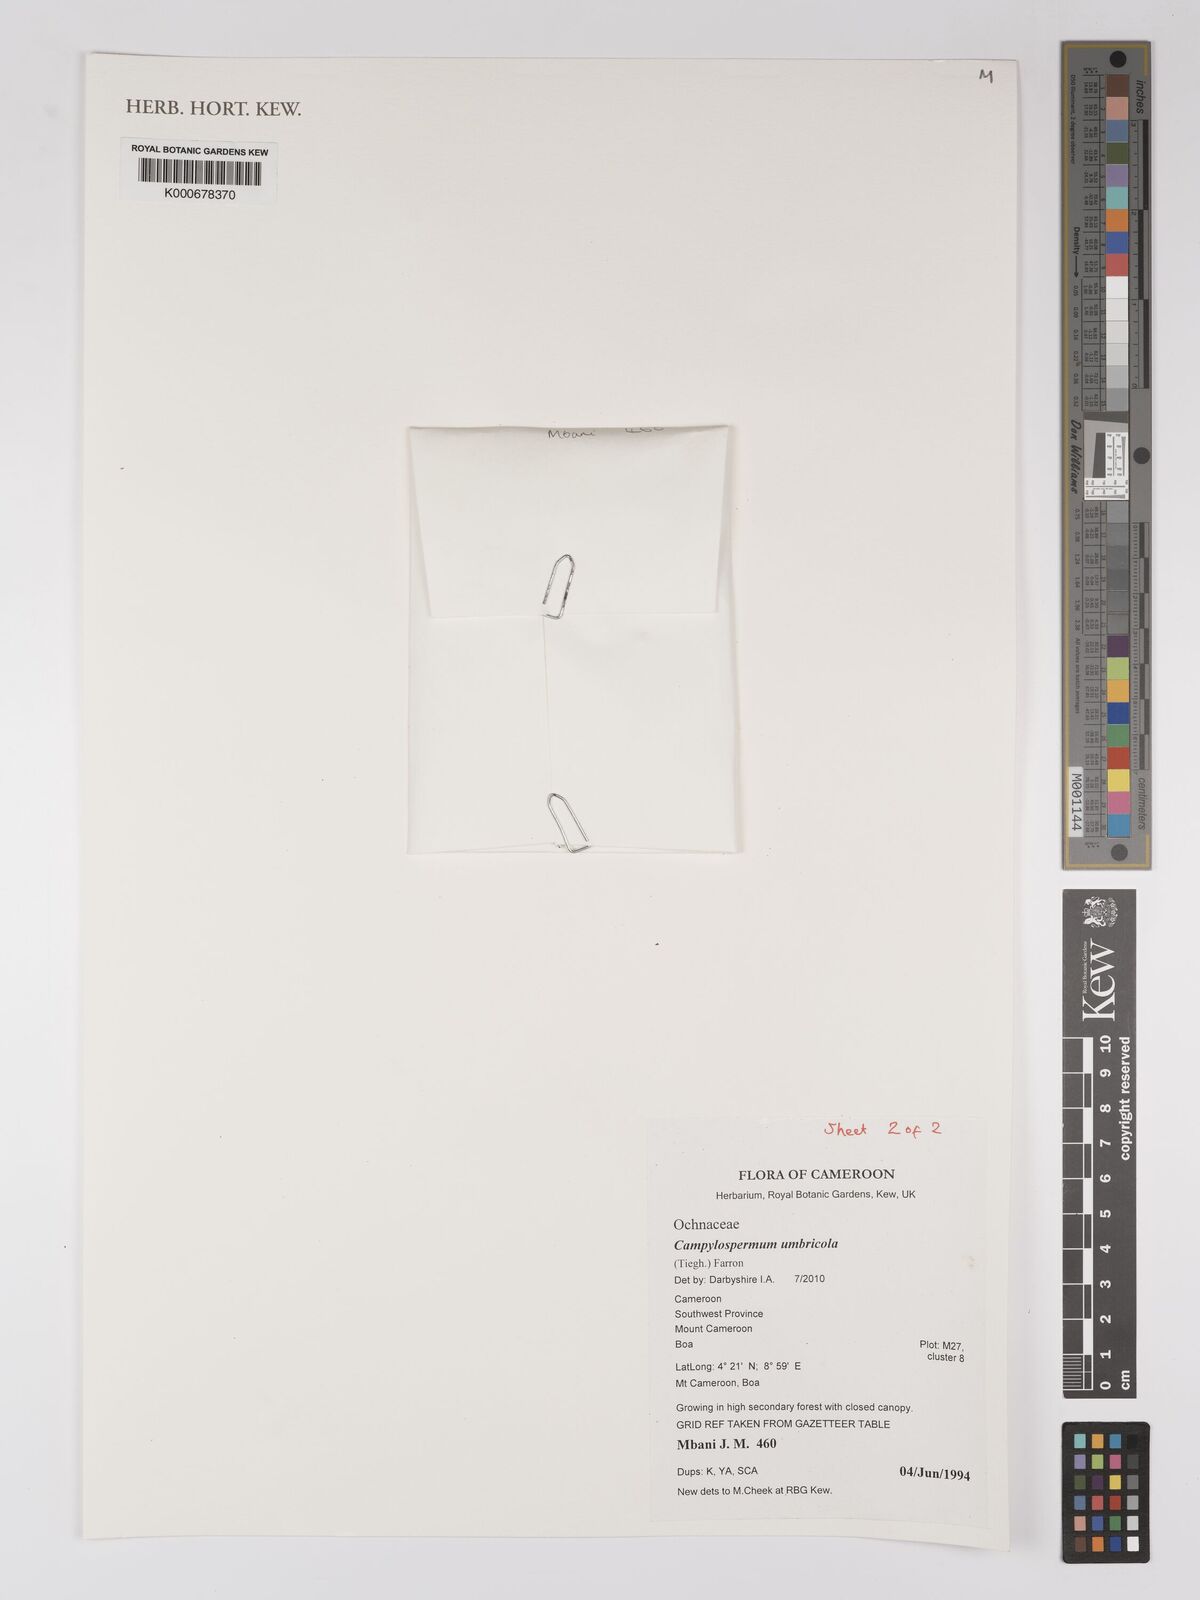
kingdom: Plantae
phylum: Tracheophyta
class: Magnoliopsida
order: Malpighiales
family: Ochnaceae
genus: Campylospermum
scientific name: Campylospermum umbricola
